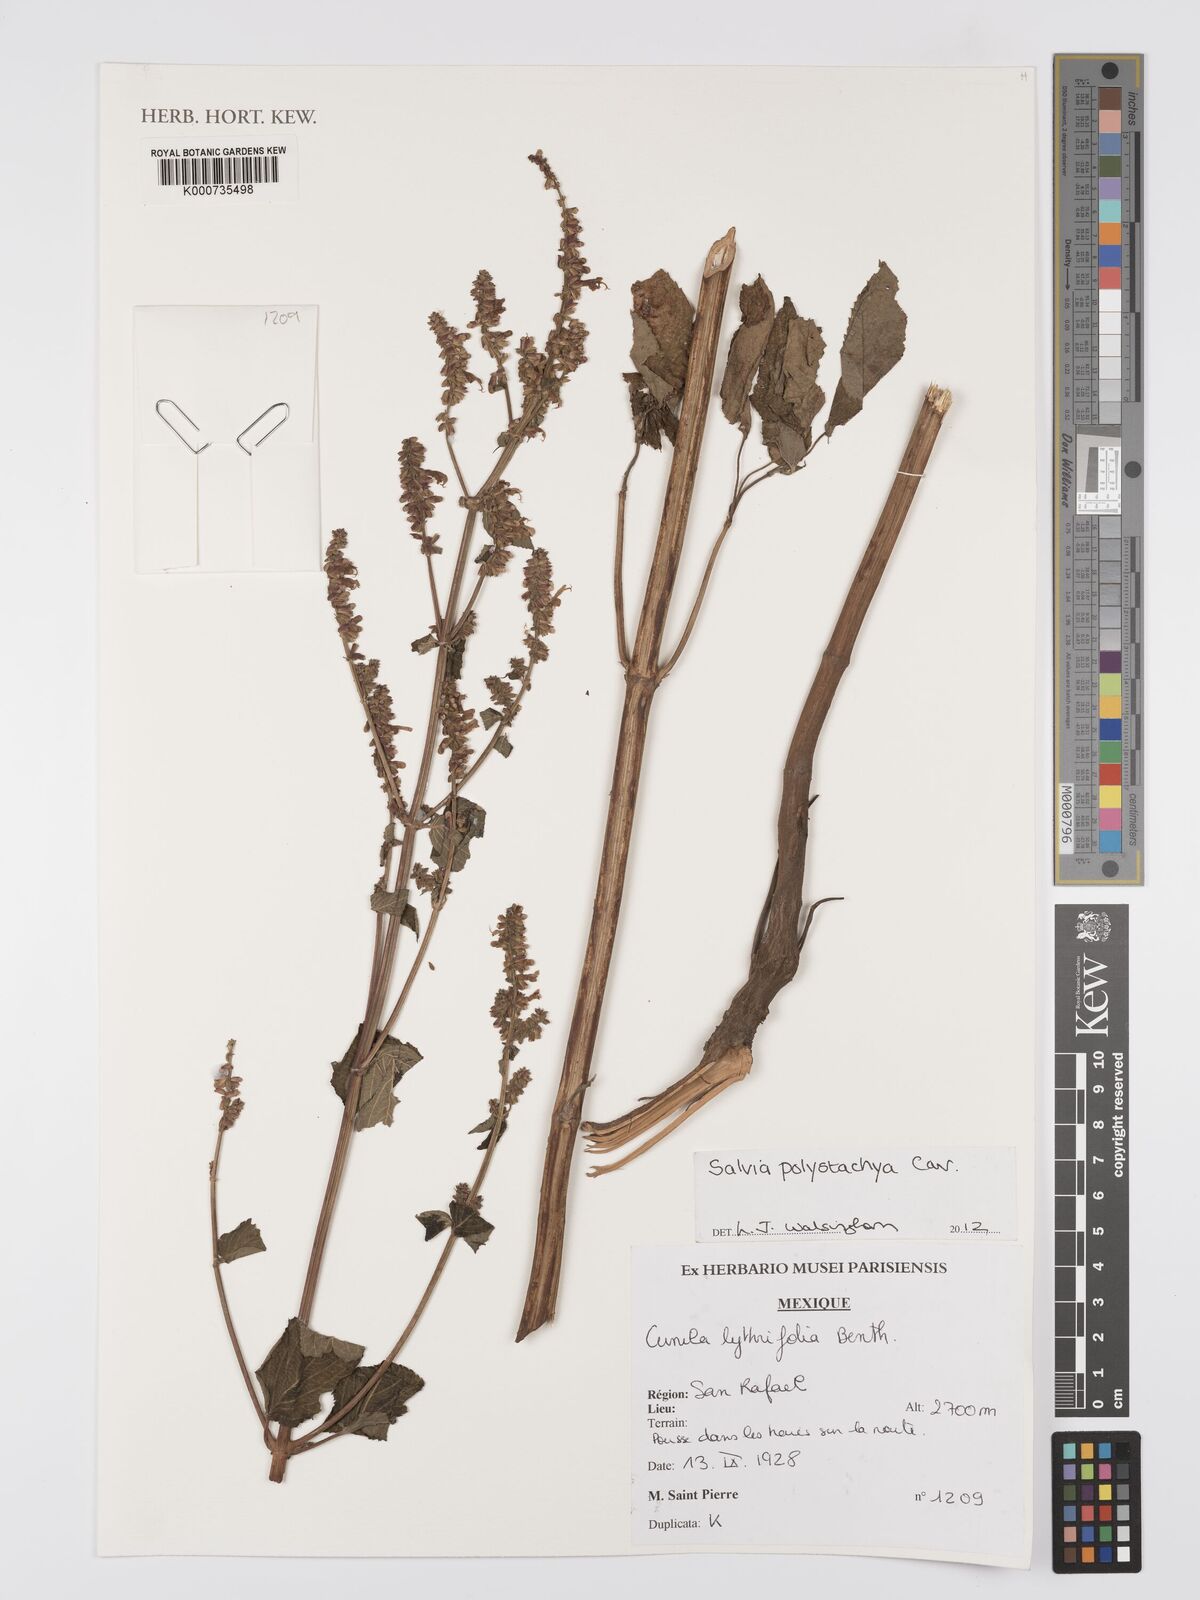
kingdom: Plantae
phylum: Tracheophyta
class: Magnoliopsida
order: Lamiales
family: Lamiaceae
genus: Salvia
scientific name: Salvia polystachia
